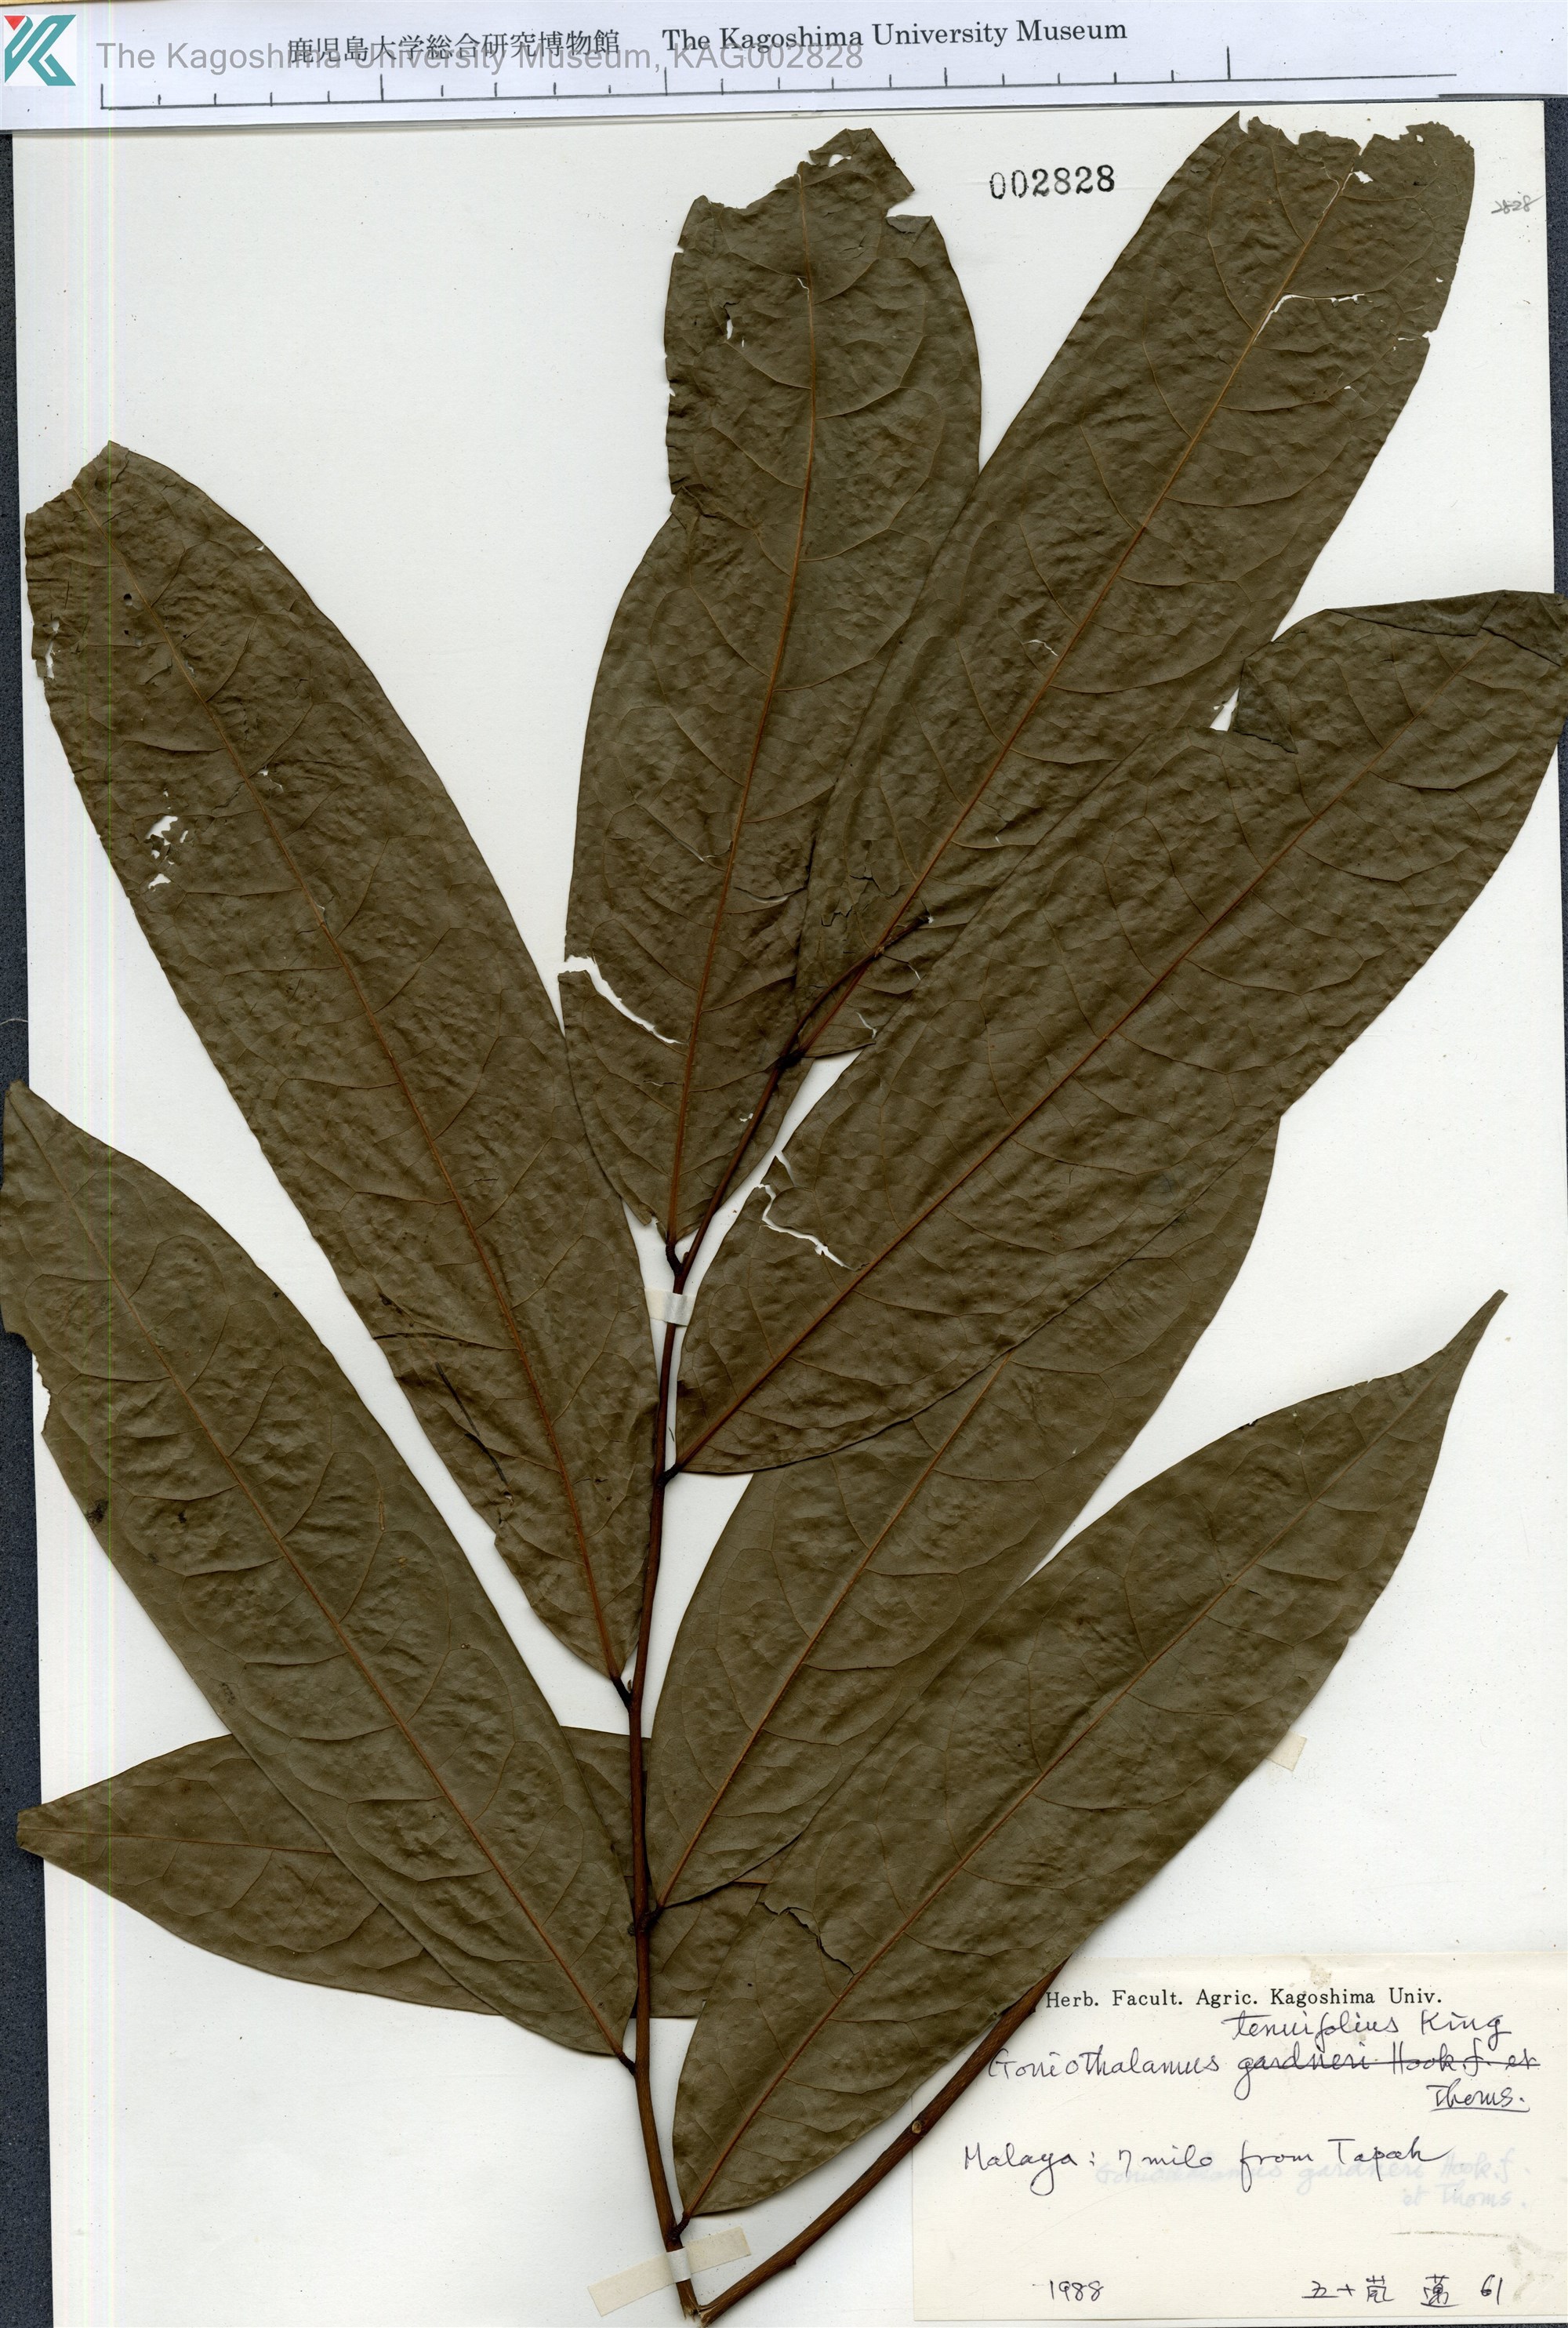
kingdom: Plantae
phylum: Tracheophyta
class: Magnoliopsida
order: Magnoliales
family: Annonaceae
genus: Goniothalamus
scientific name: Goniothalamus tenuifolius
